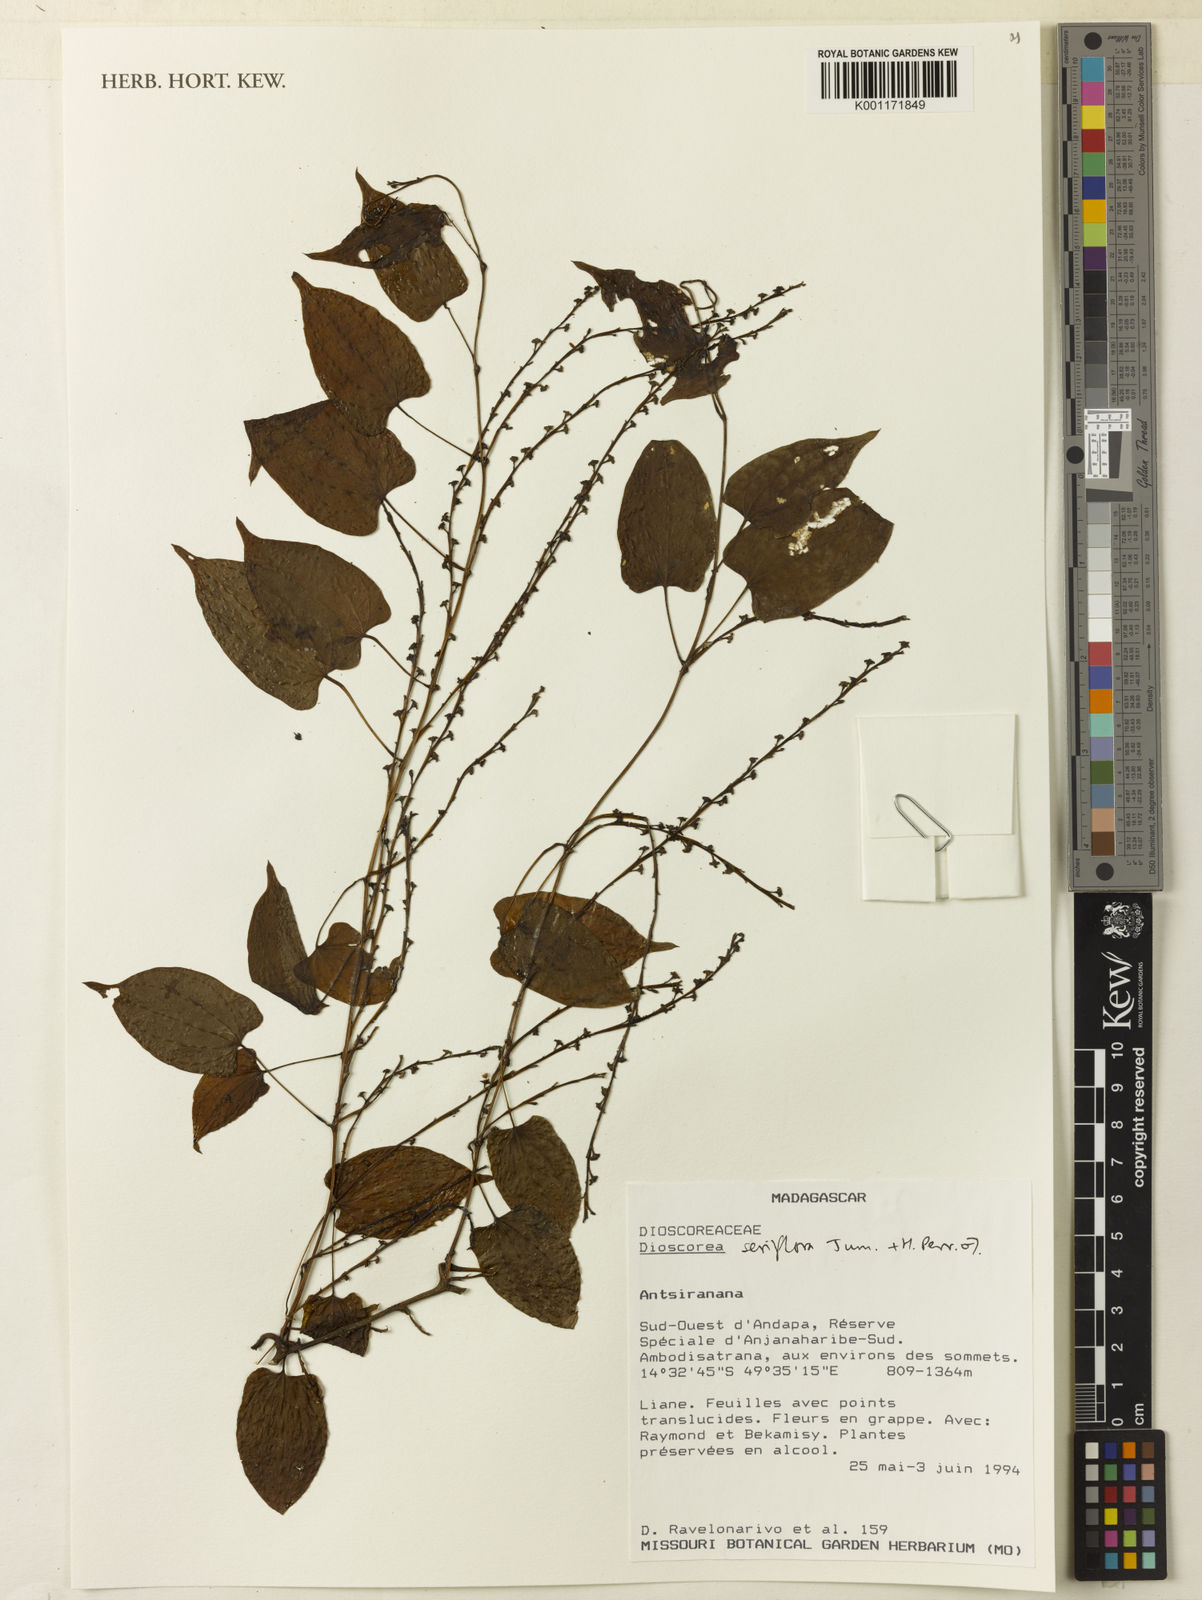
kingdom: Plantae
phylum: Tracheophyta
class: Liliopsida
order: Dioscoreales
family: Dioscoreaceae
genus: Dioscorea
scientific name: Dioscorea seriflora
